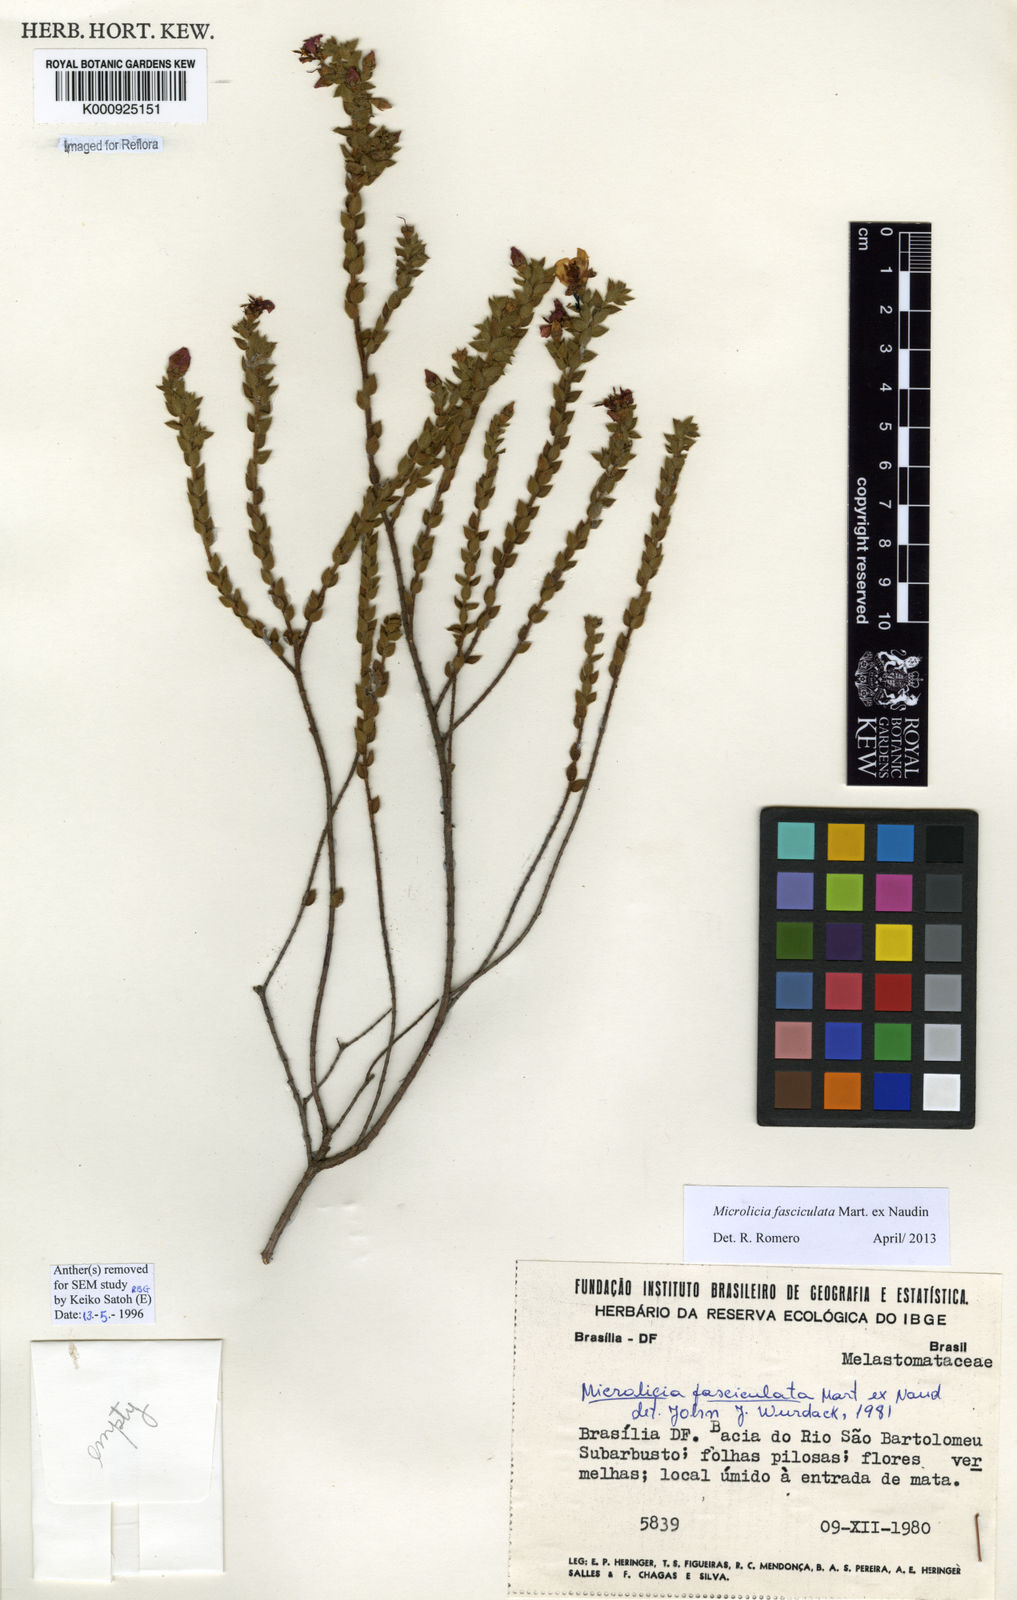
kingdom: Plantae
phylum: Tracheophyta
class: Magnoliopsida
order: Myrtales
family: Melastomataceae
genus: Microlicia
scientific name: Microlicia fasciculata
